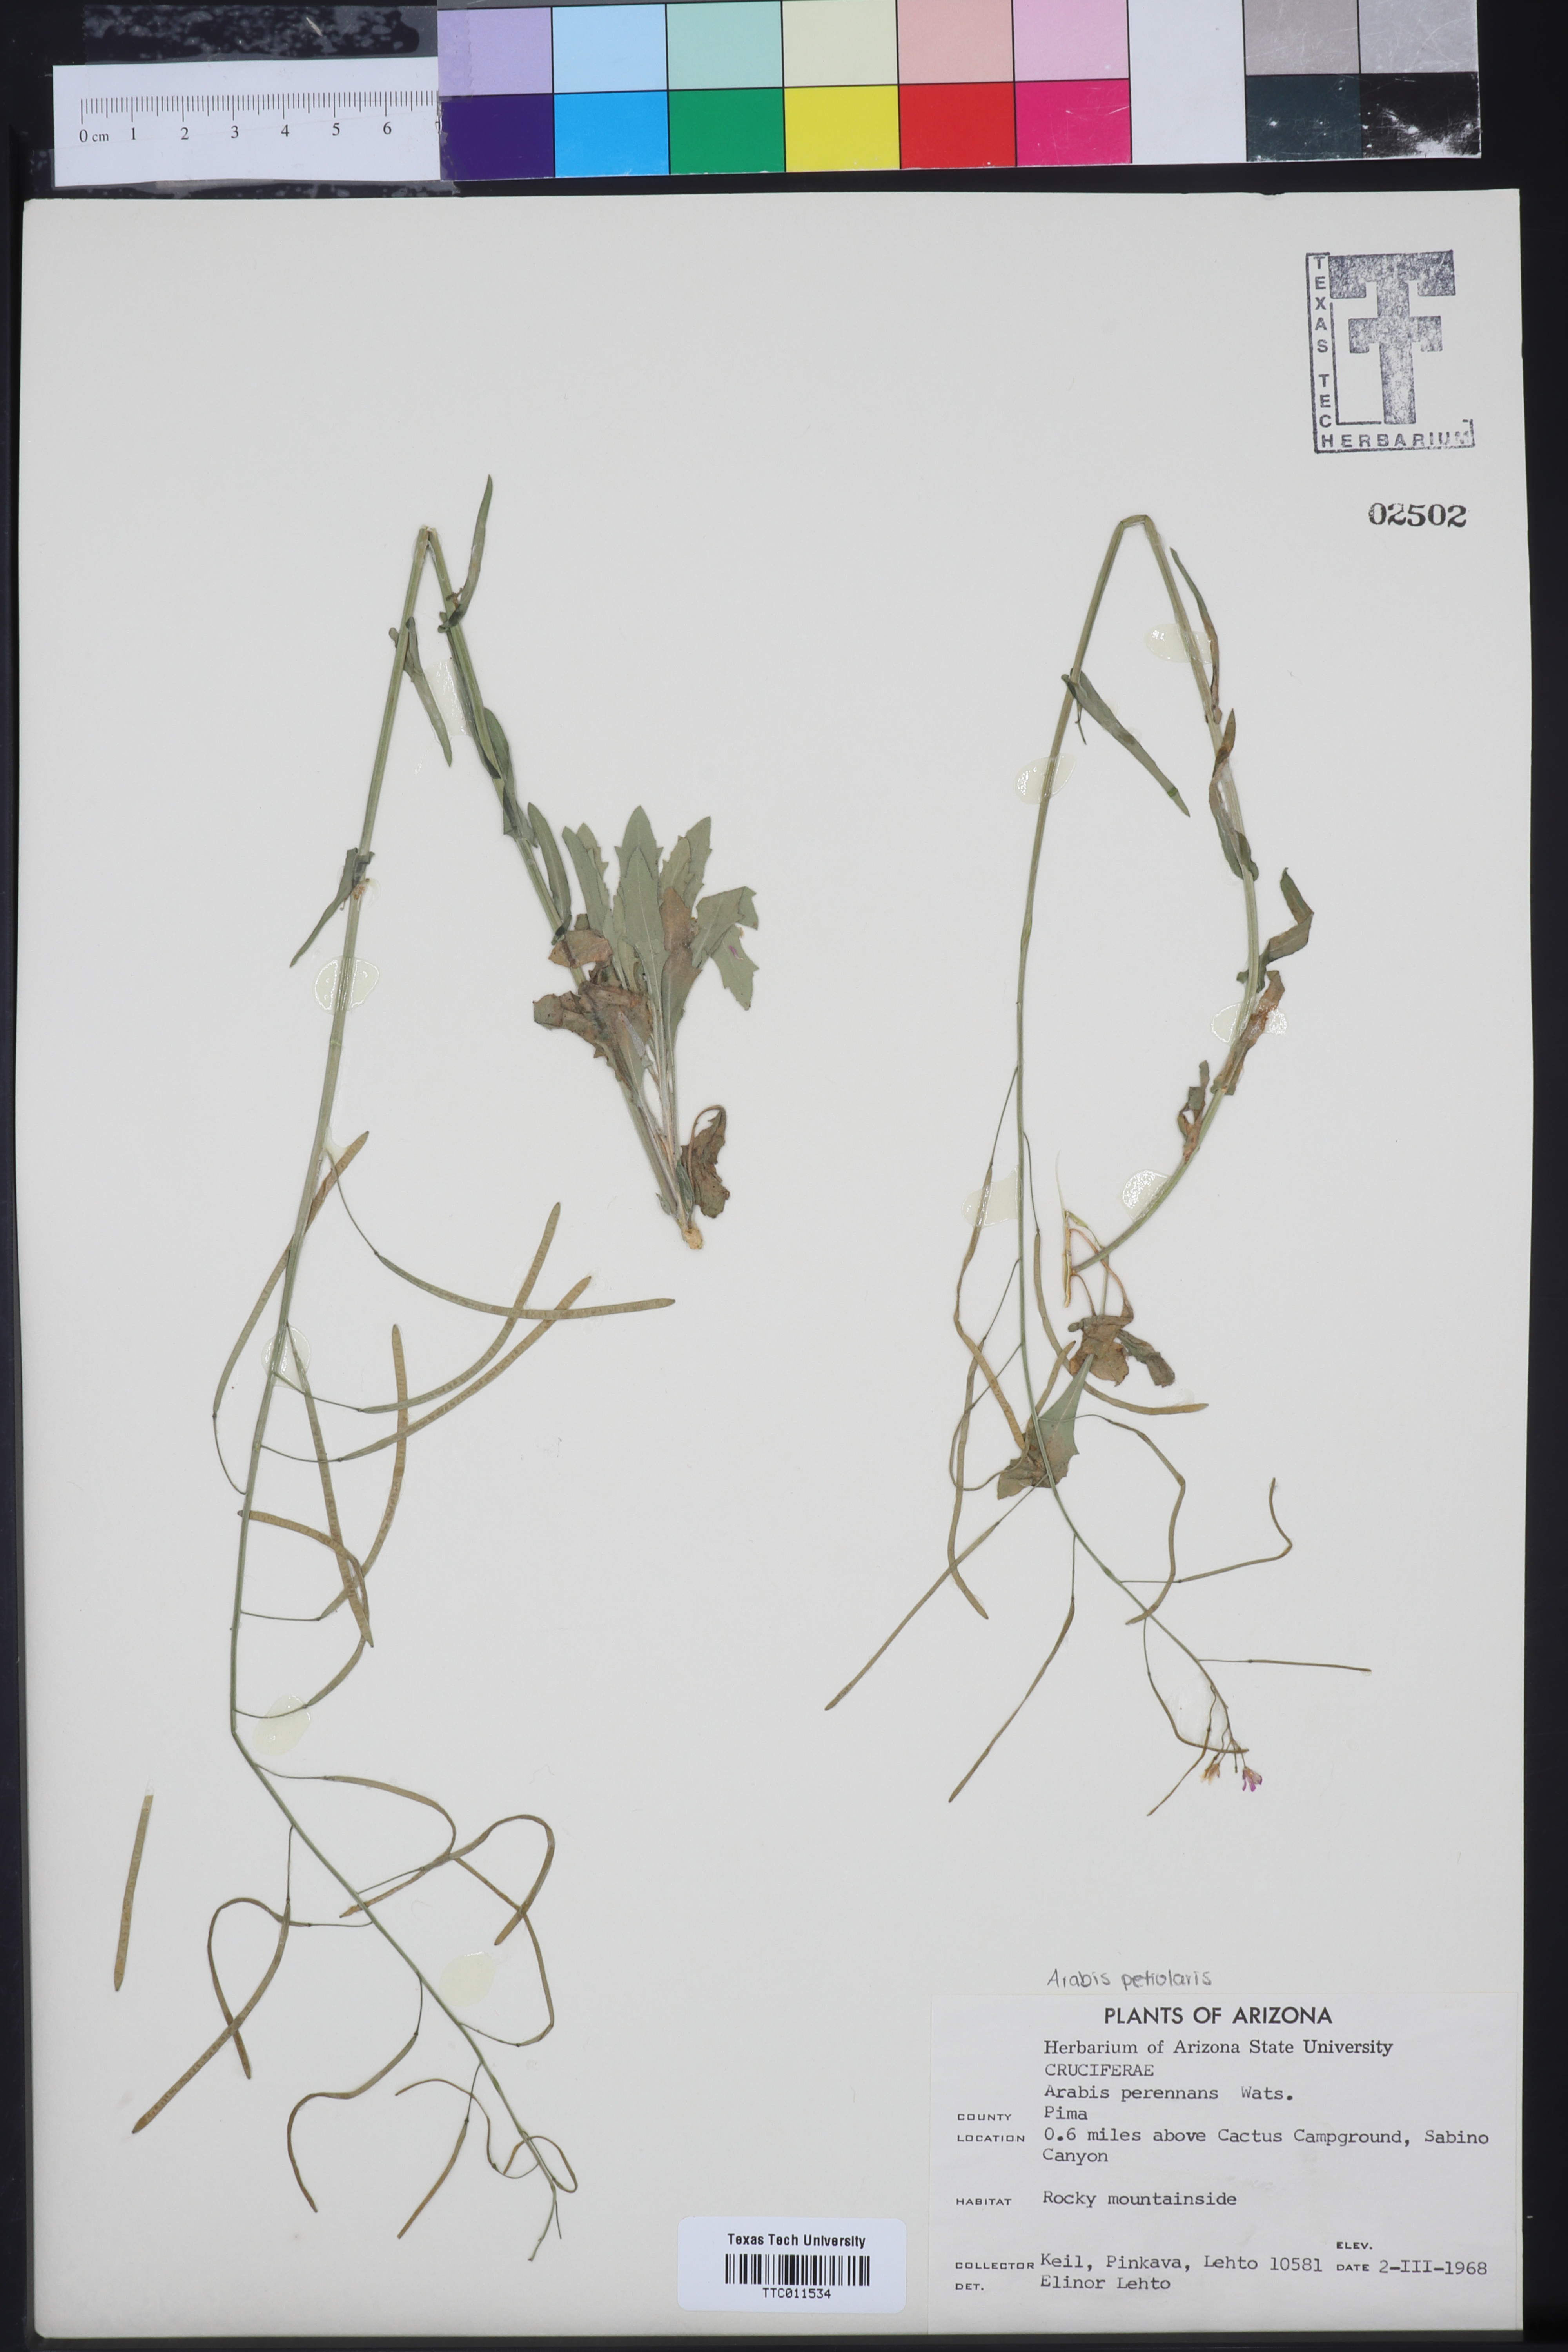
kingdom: Plantae
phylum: Tracheophyta
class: Magnoliopsida
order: Brassicales
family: Brassicaceae
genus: Boechera
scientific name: Boechera perennans
